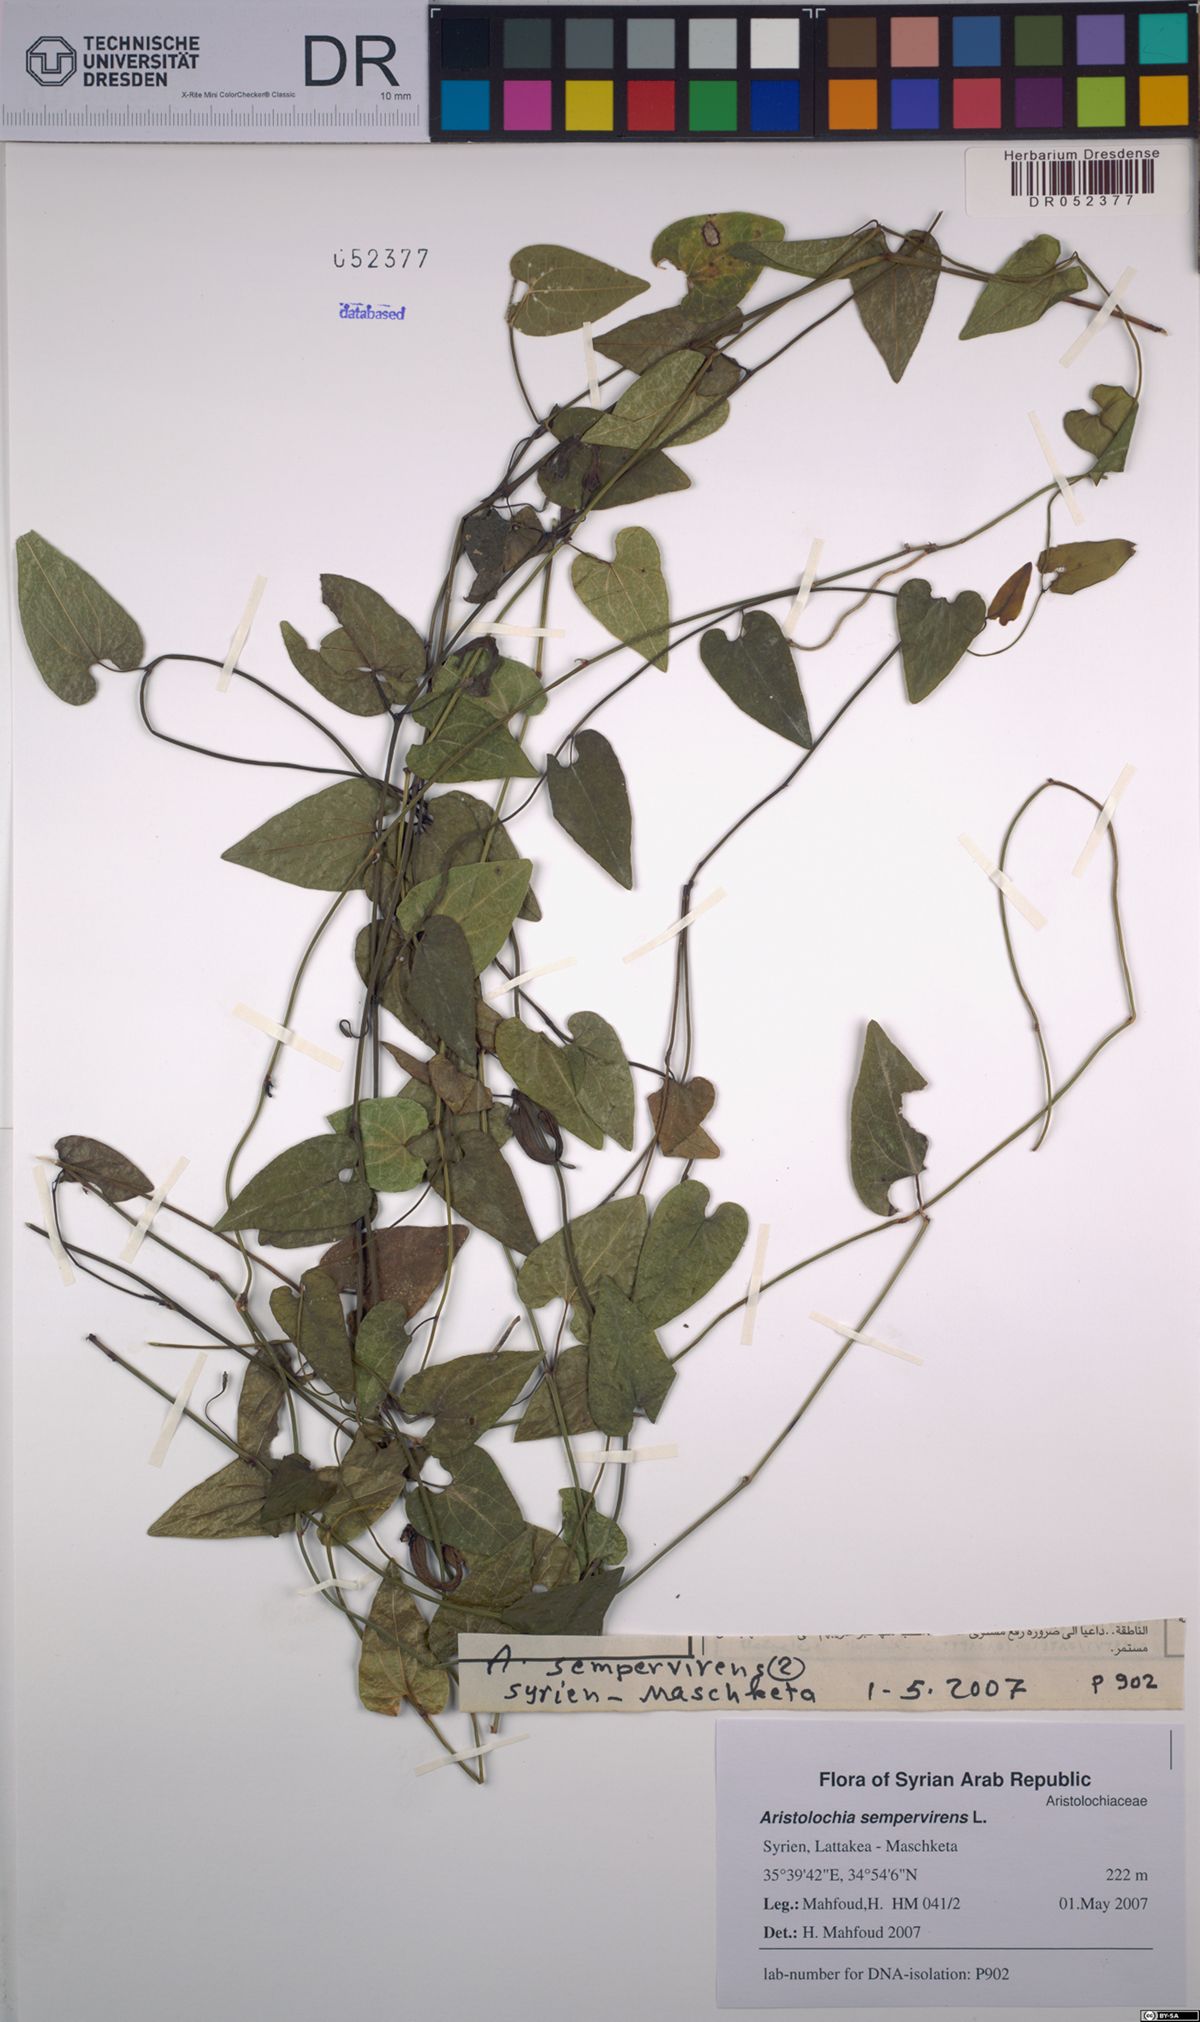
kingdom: Plantae
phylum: Tracheophyta
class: Magnoliopsida
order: Piperales
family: Aristolochiaceae
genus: Aristolochia
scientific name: Aristolochia sempervirens
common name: Long birthwort
